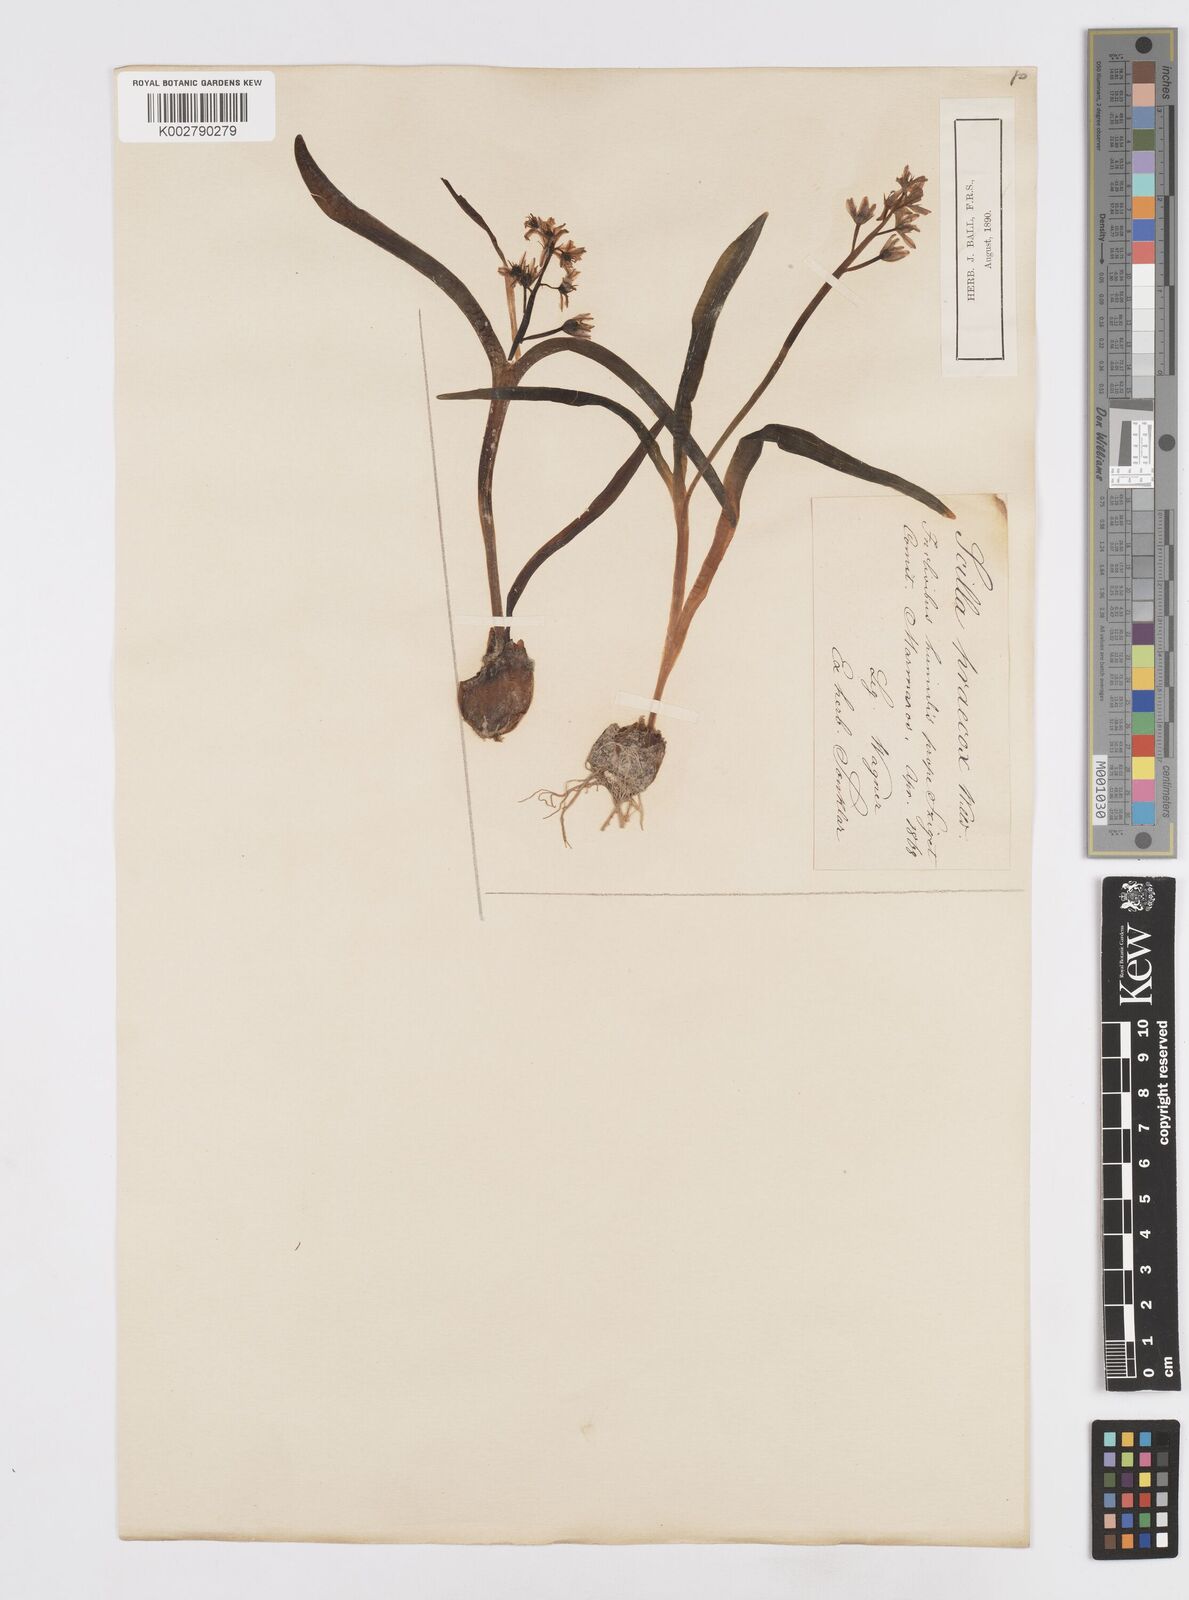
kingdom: Plantae
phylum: Tracheophyta
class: Liliopsida
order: Asparagales
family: Asparagaceae
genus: Scilla
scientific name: Scilla bifolia
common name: Alpine squill
